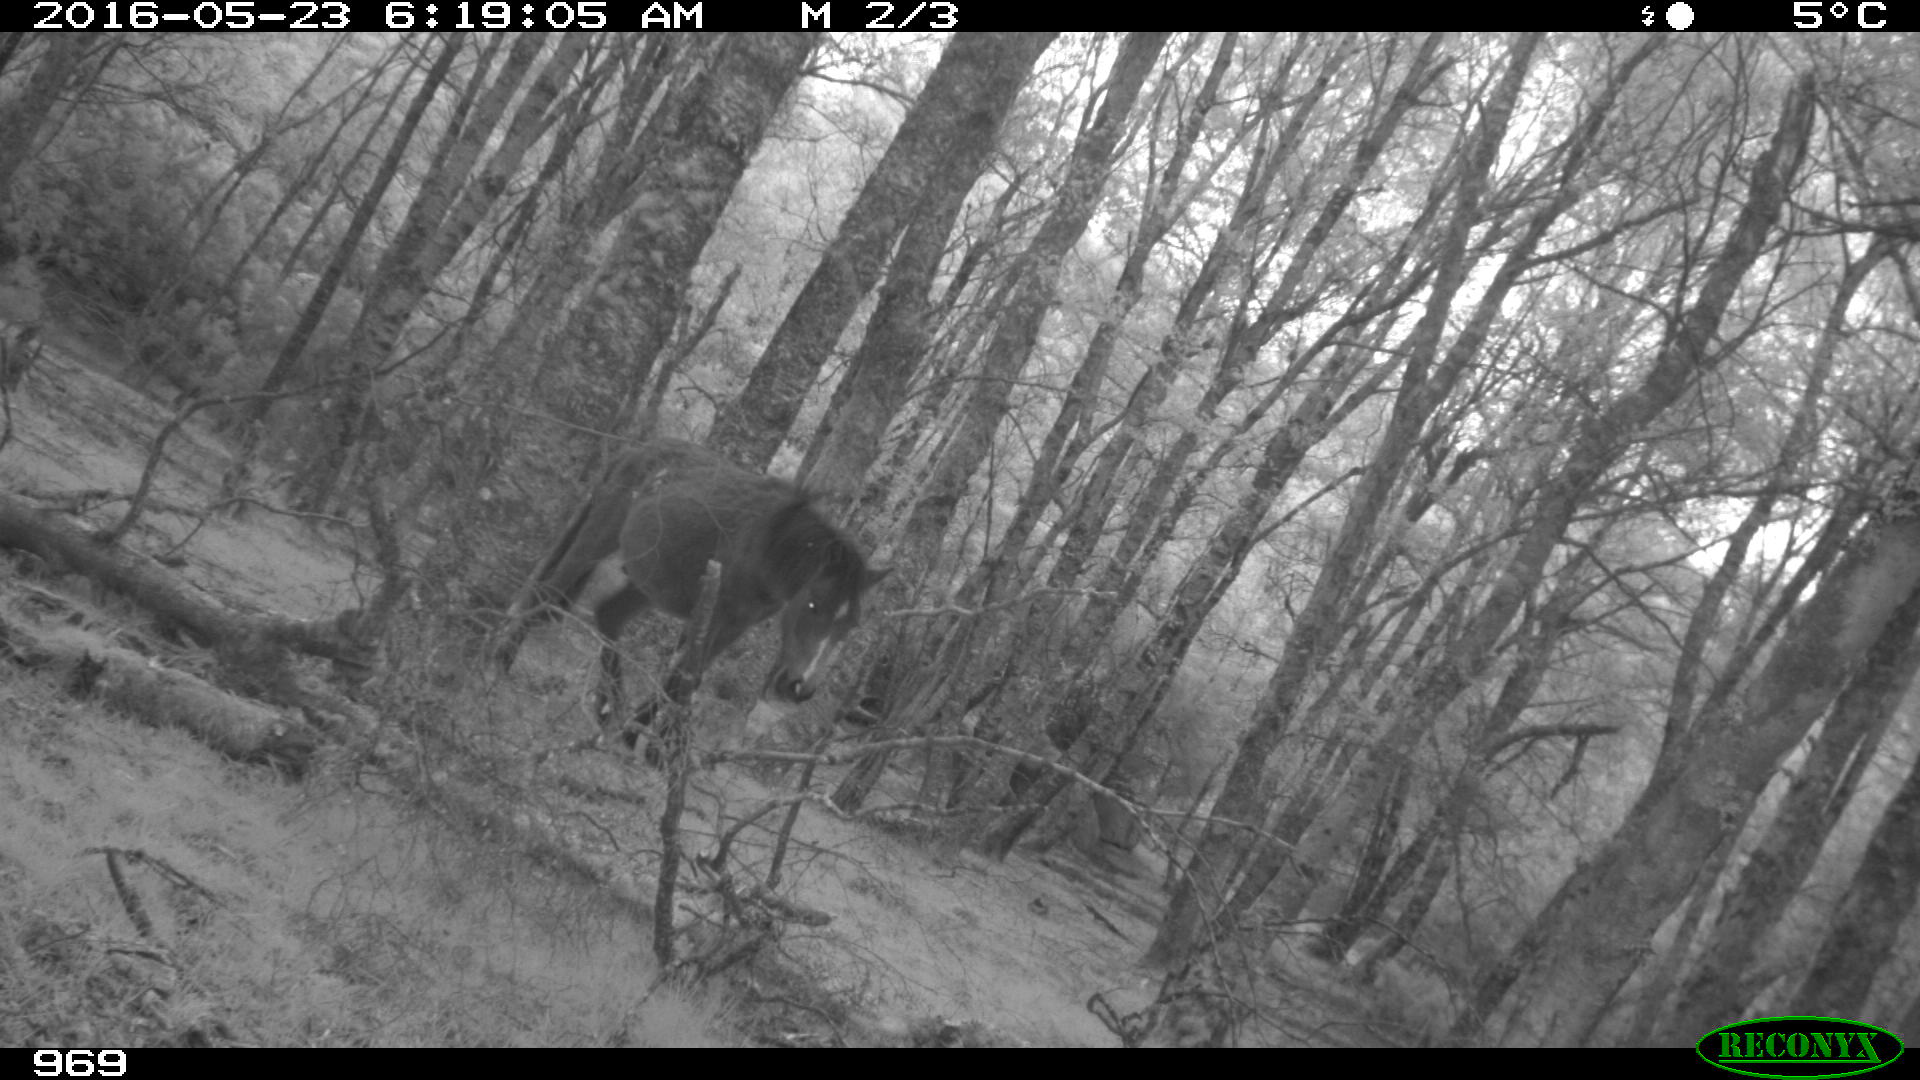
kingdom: Animalia
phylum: Chordata
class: Mammalia
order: Perissodactyla
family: Equidae
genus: Equus
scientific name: Equus caballus
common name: Horse
